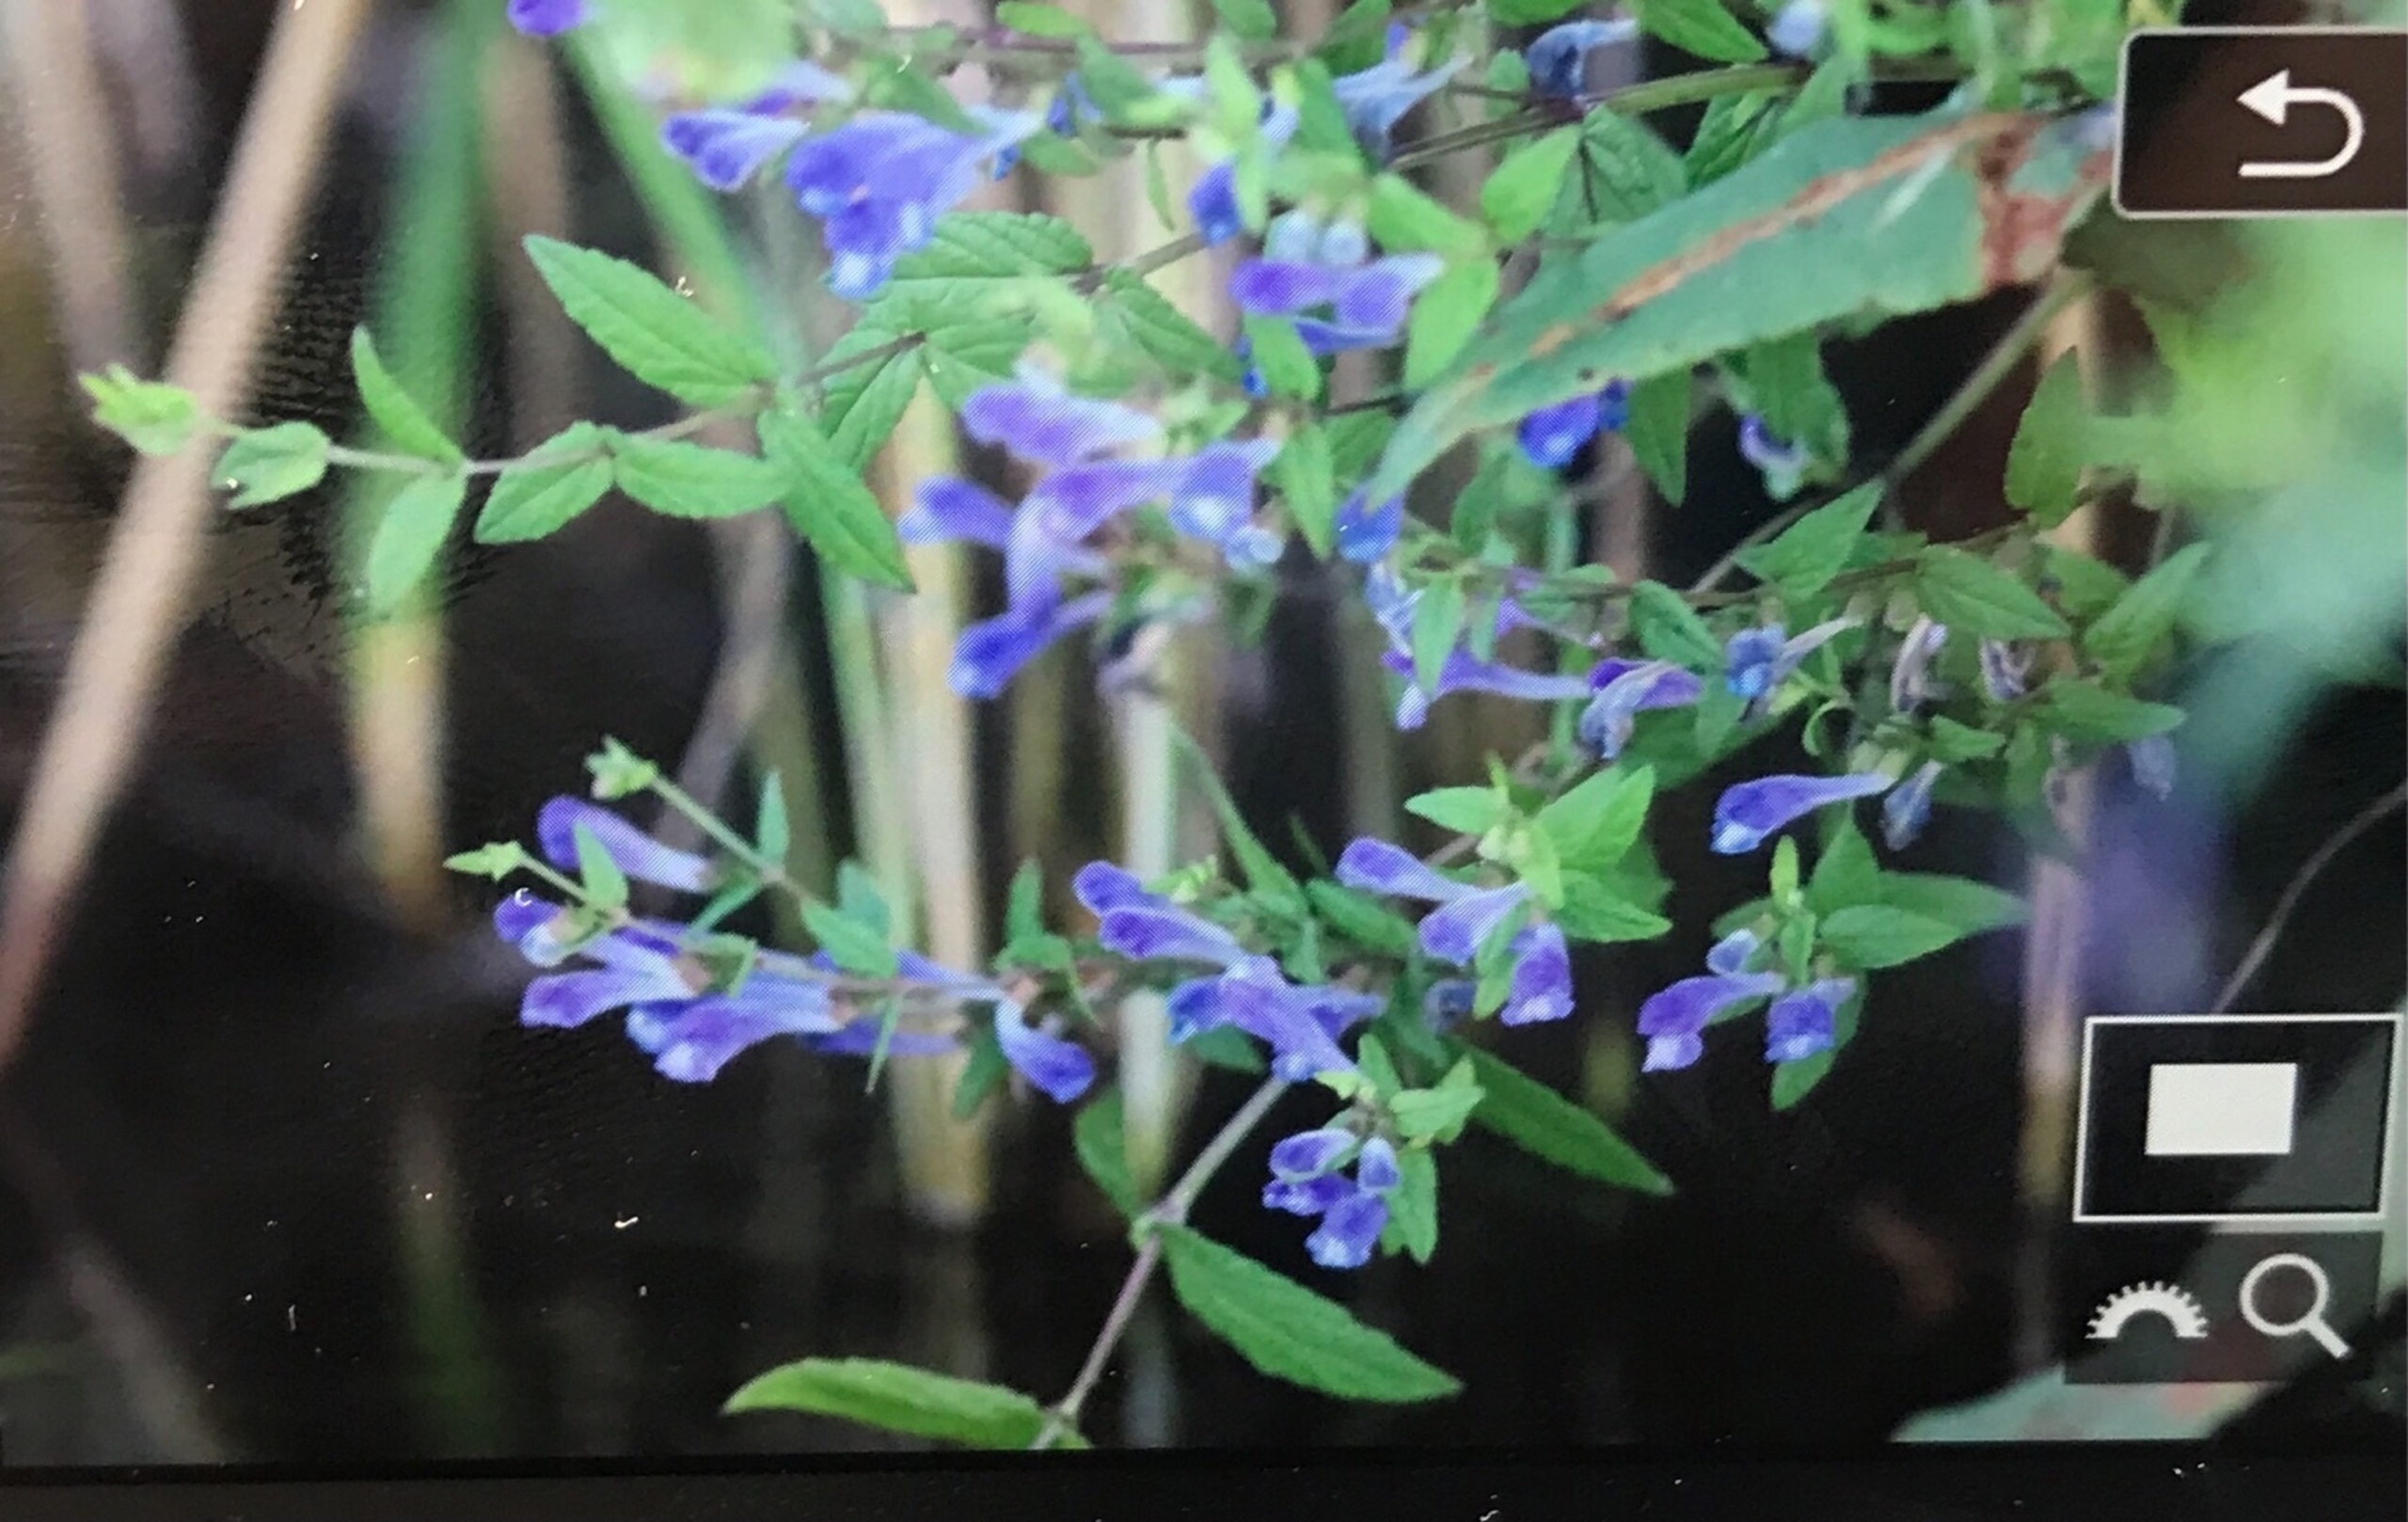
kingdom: Plantae
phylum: Tracheophyta
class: Magnoliopsida
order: Lamiales
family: Lamiaceae
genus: Scutellaria
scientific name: Scutellaria galericulata
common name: Almindelig skjolddrager
